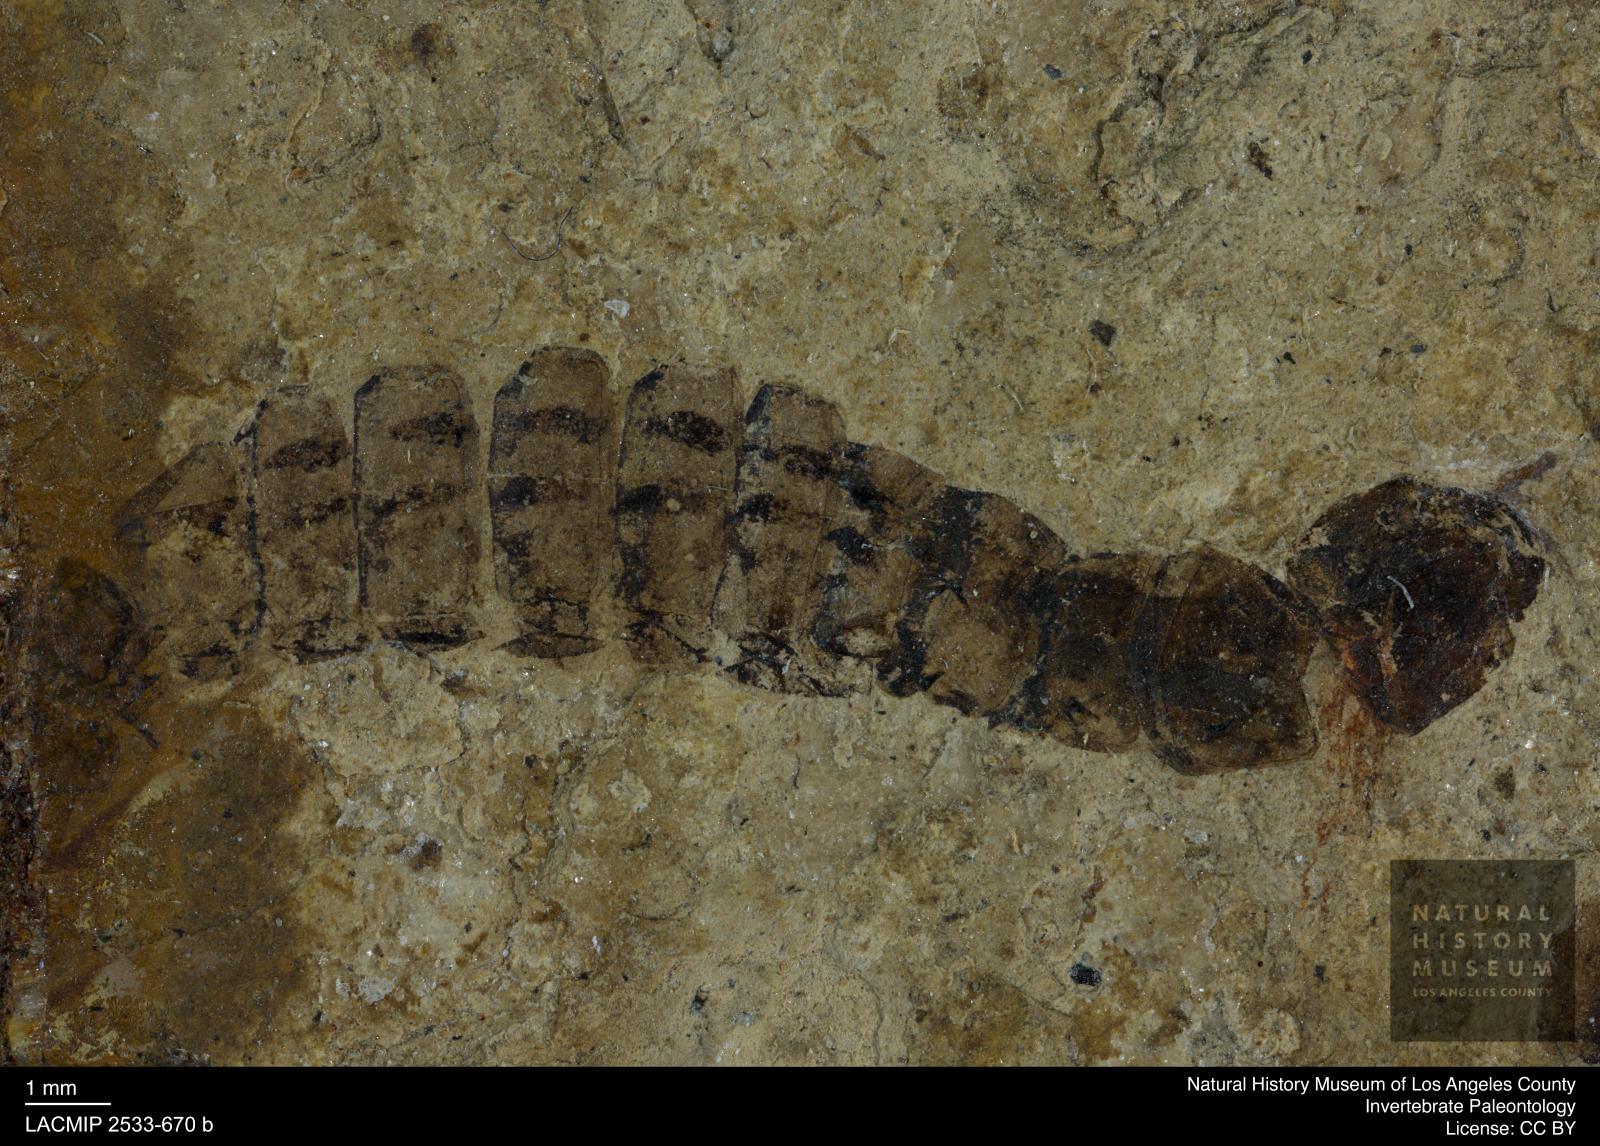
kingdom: Animalia
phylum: Arthropoda
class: Insecta
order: Coleoptera
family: Dytiscidae
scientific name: Dytiscidae
